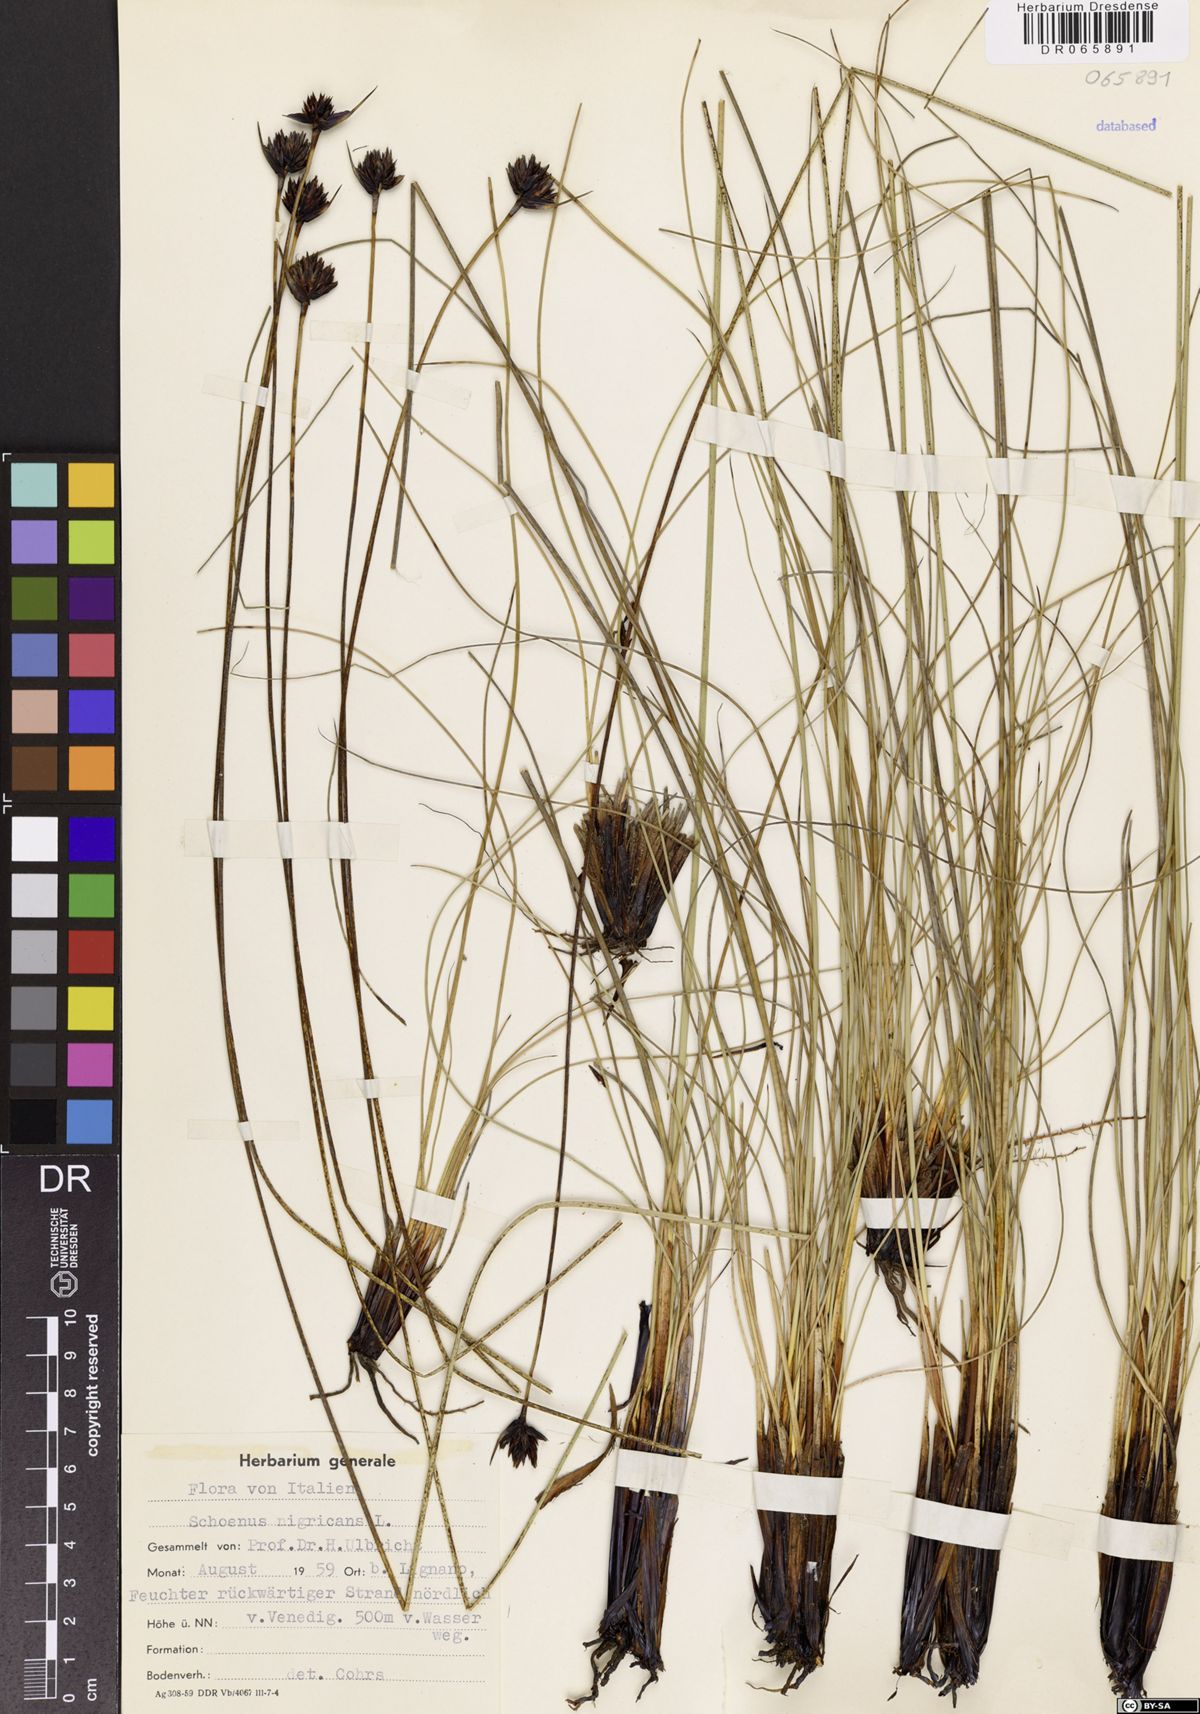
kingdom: Plantae
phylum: Tracheophyta
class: Liliopsida
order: Poales
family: Cyperaceae
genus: Schoenus
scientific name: Schoenus nigricans
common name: Black bog-rush
